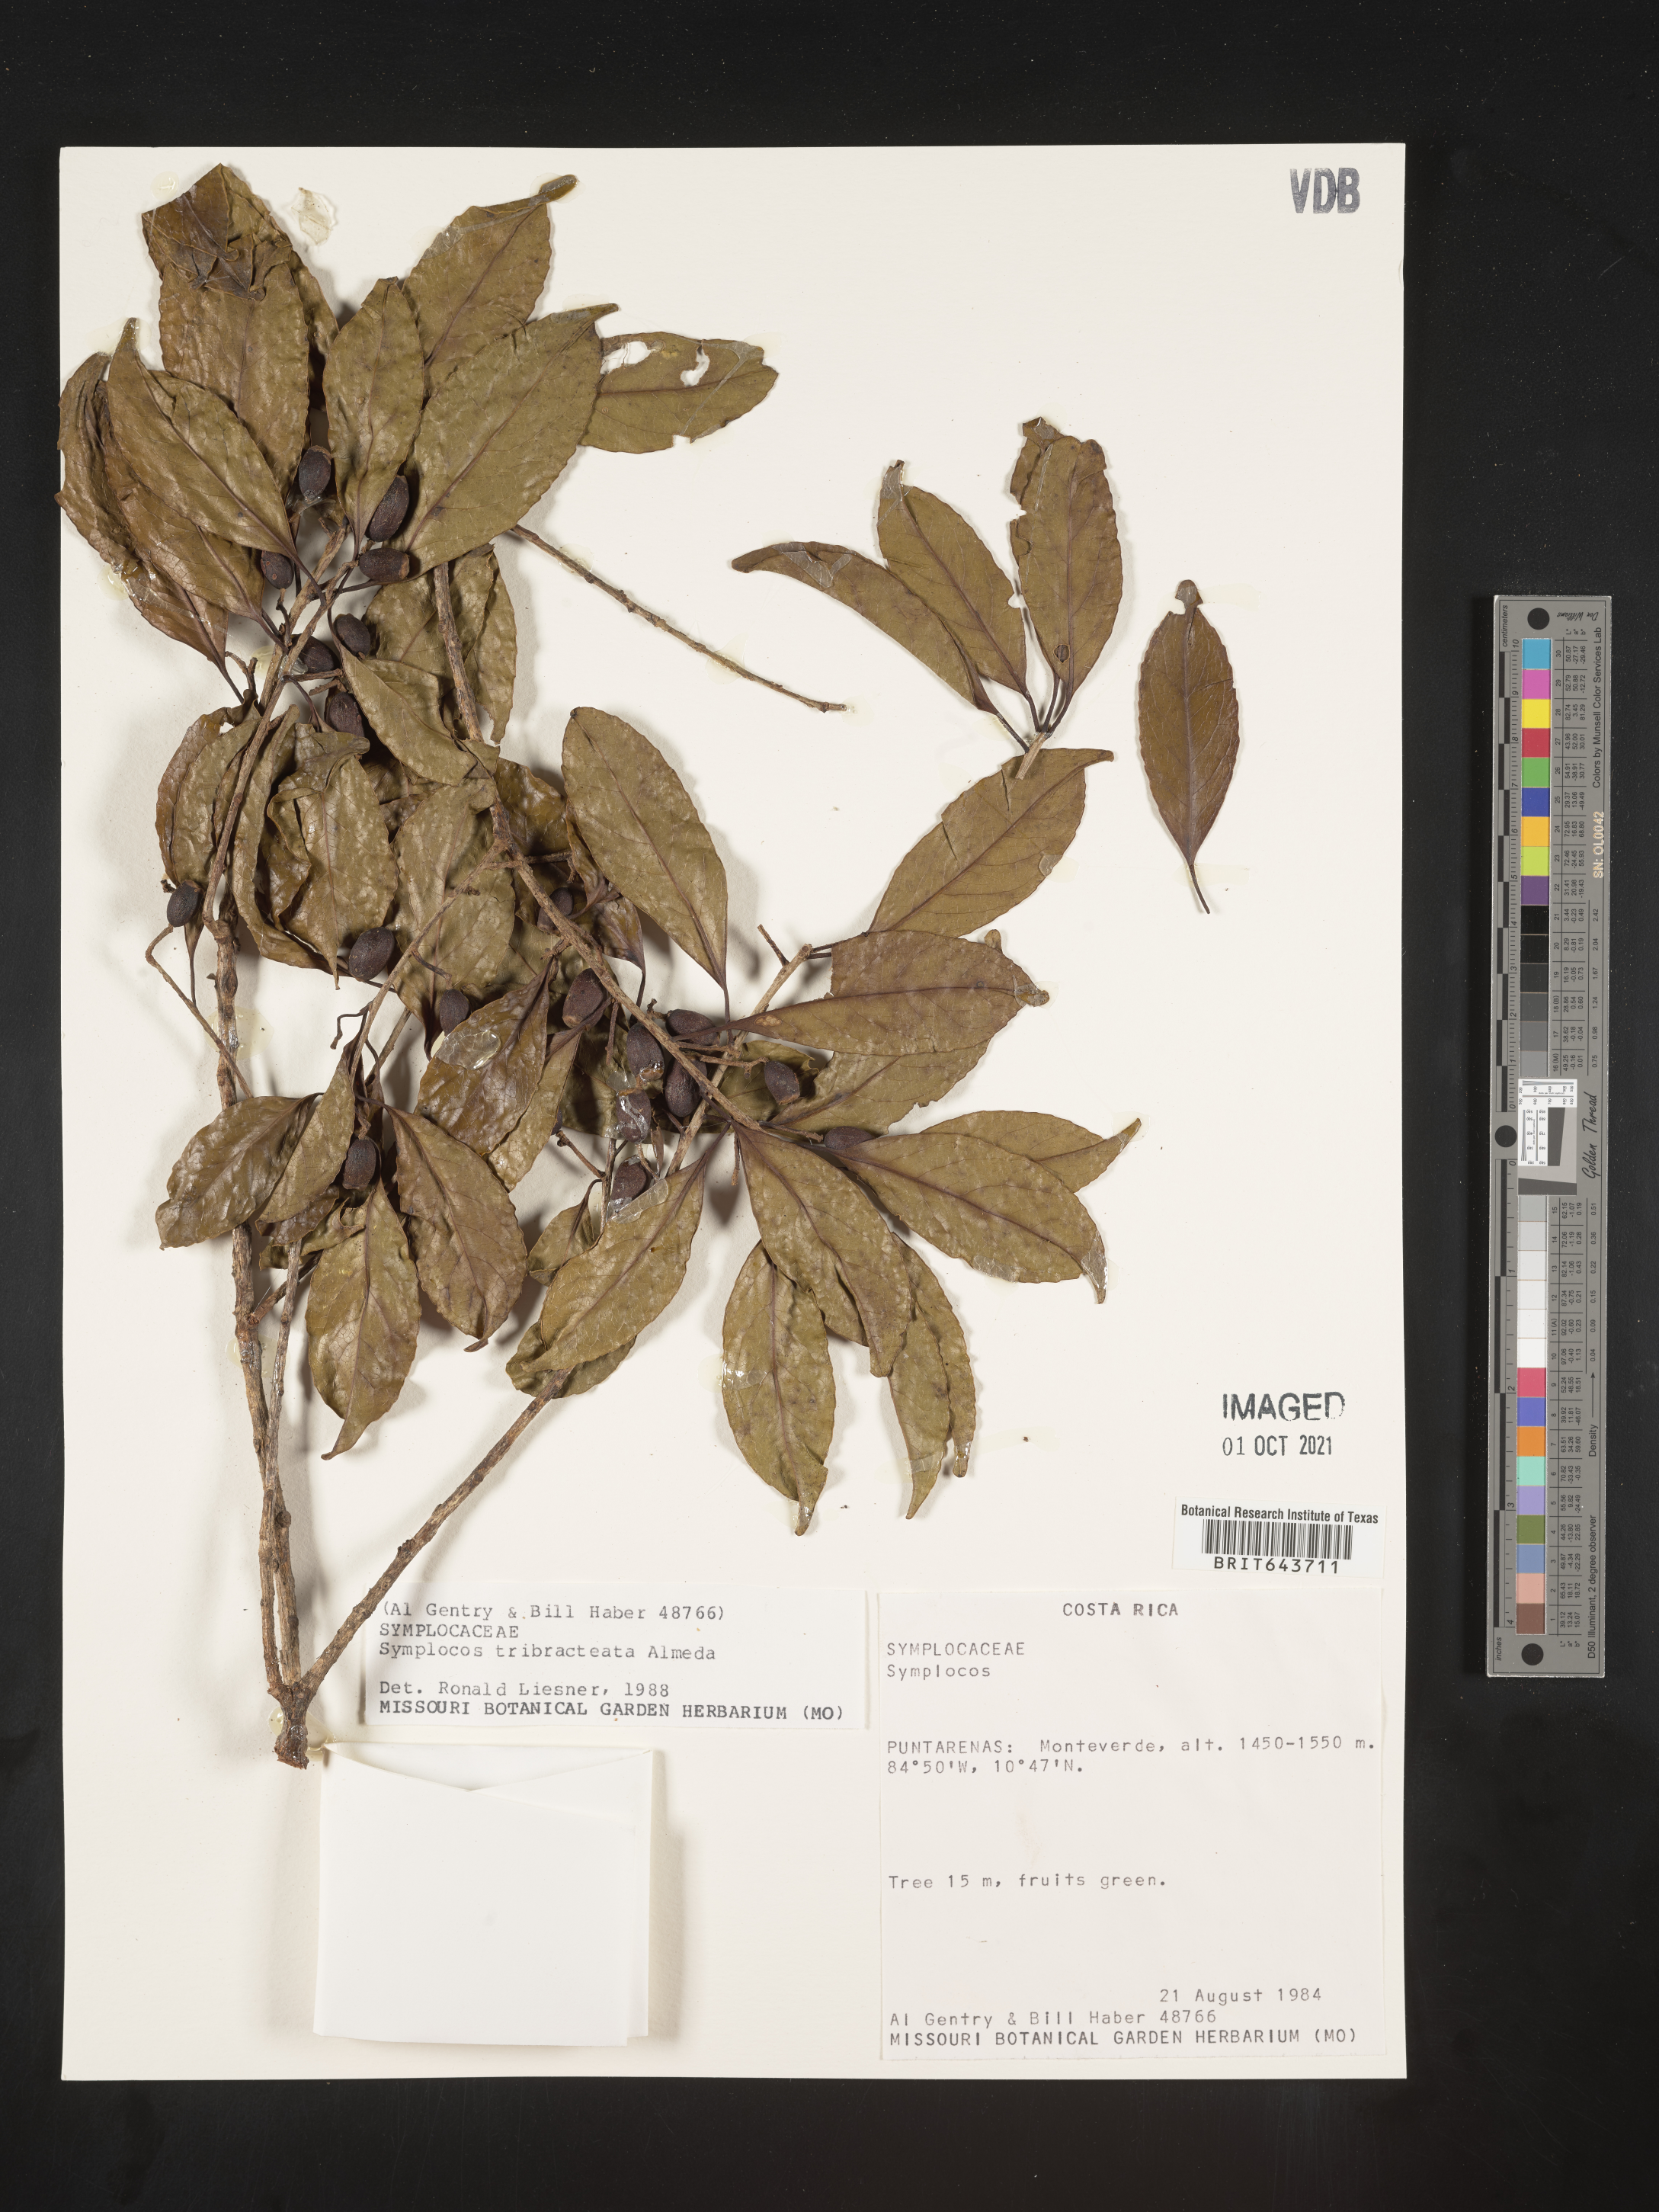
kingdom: Plantae
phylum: Tracheophyta
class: Magnoliopsida
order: Ericales
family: Symplocaceae
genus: Symplocos
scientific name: Symplocos
